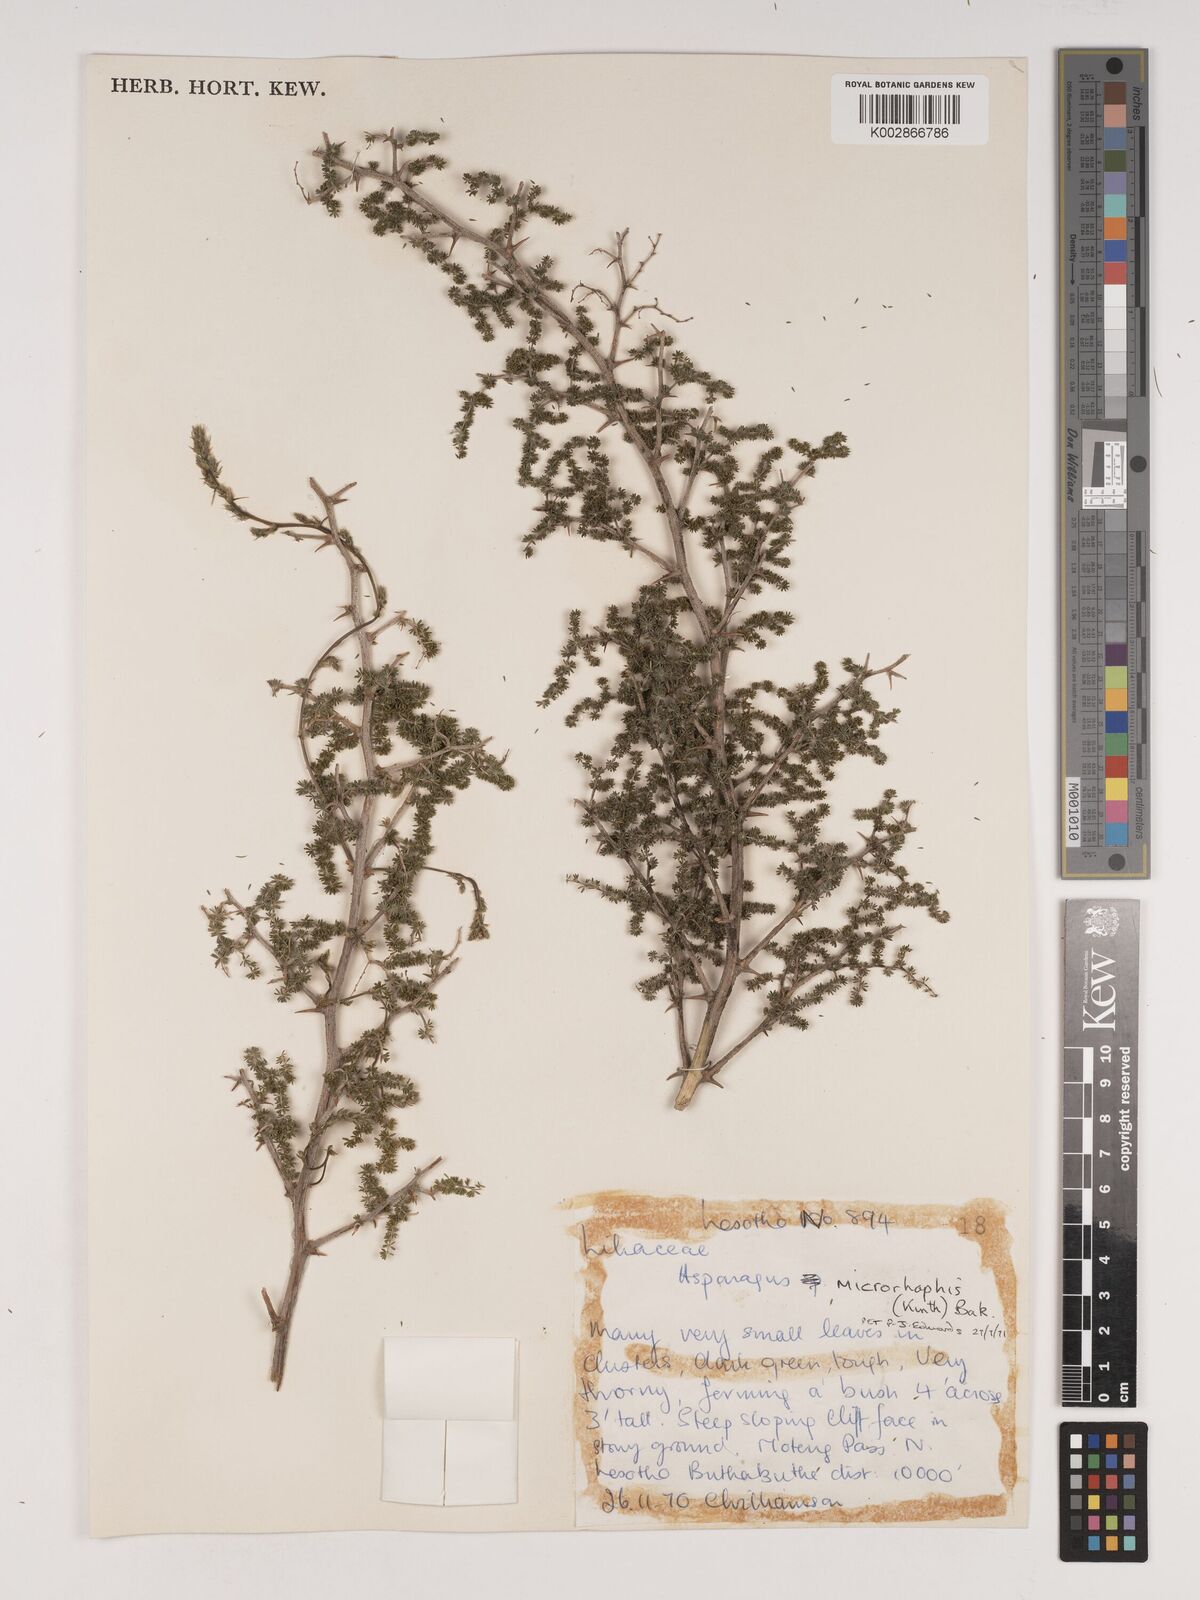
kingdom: Plantae
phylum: Tracheophyta
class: Liliopsida
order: Asparagales
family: Asparagaceae
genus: Asparagus
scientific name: Asparagus microraphis
